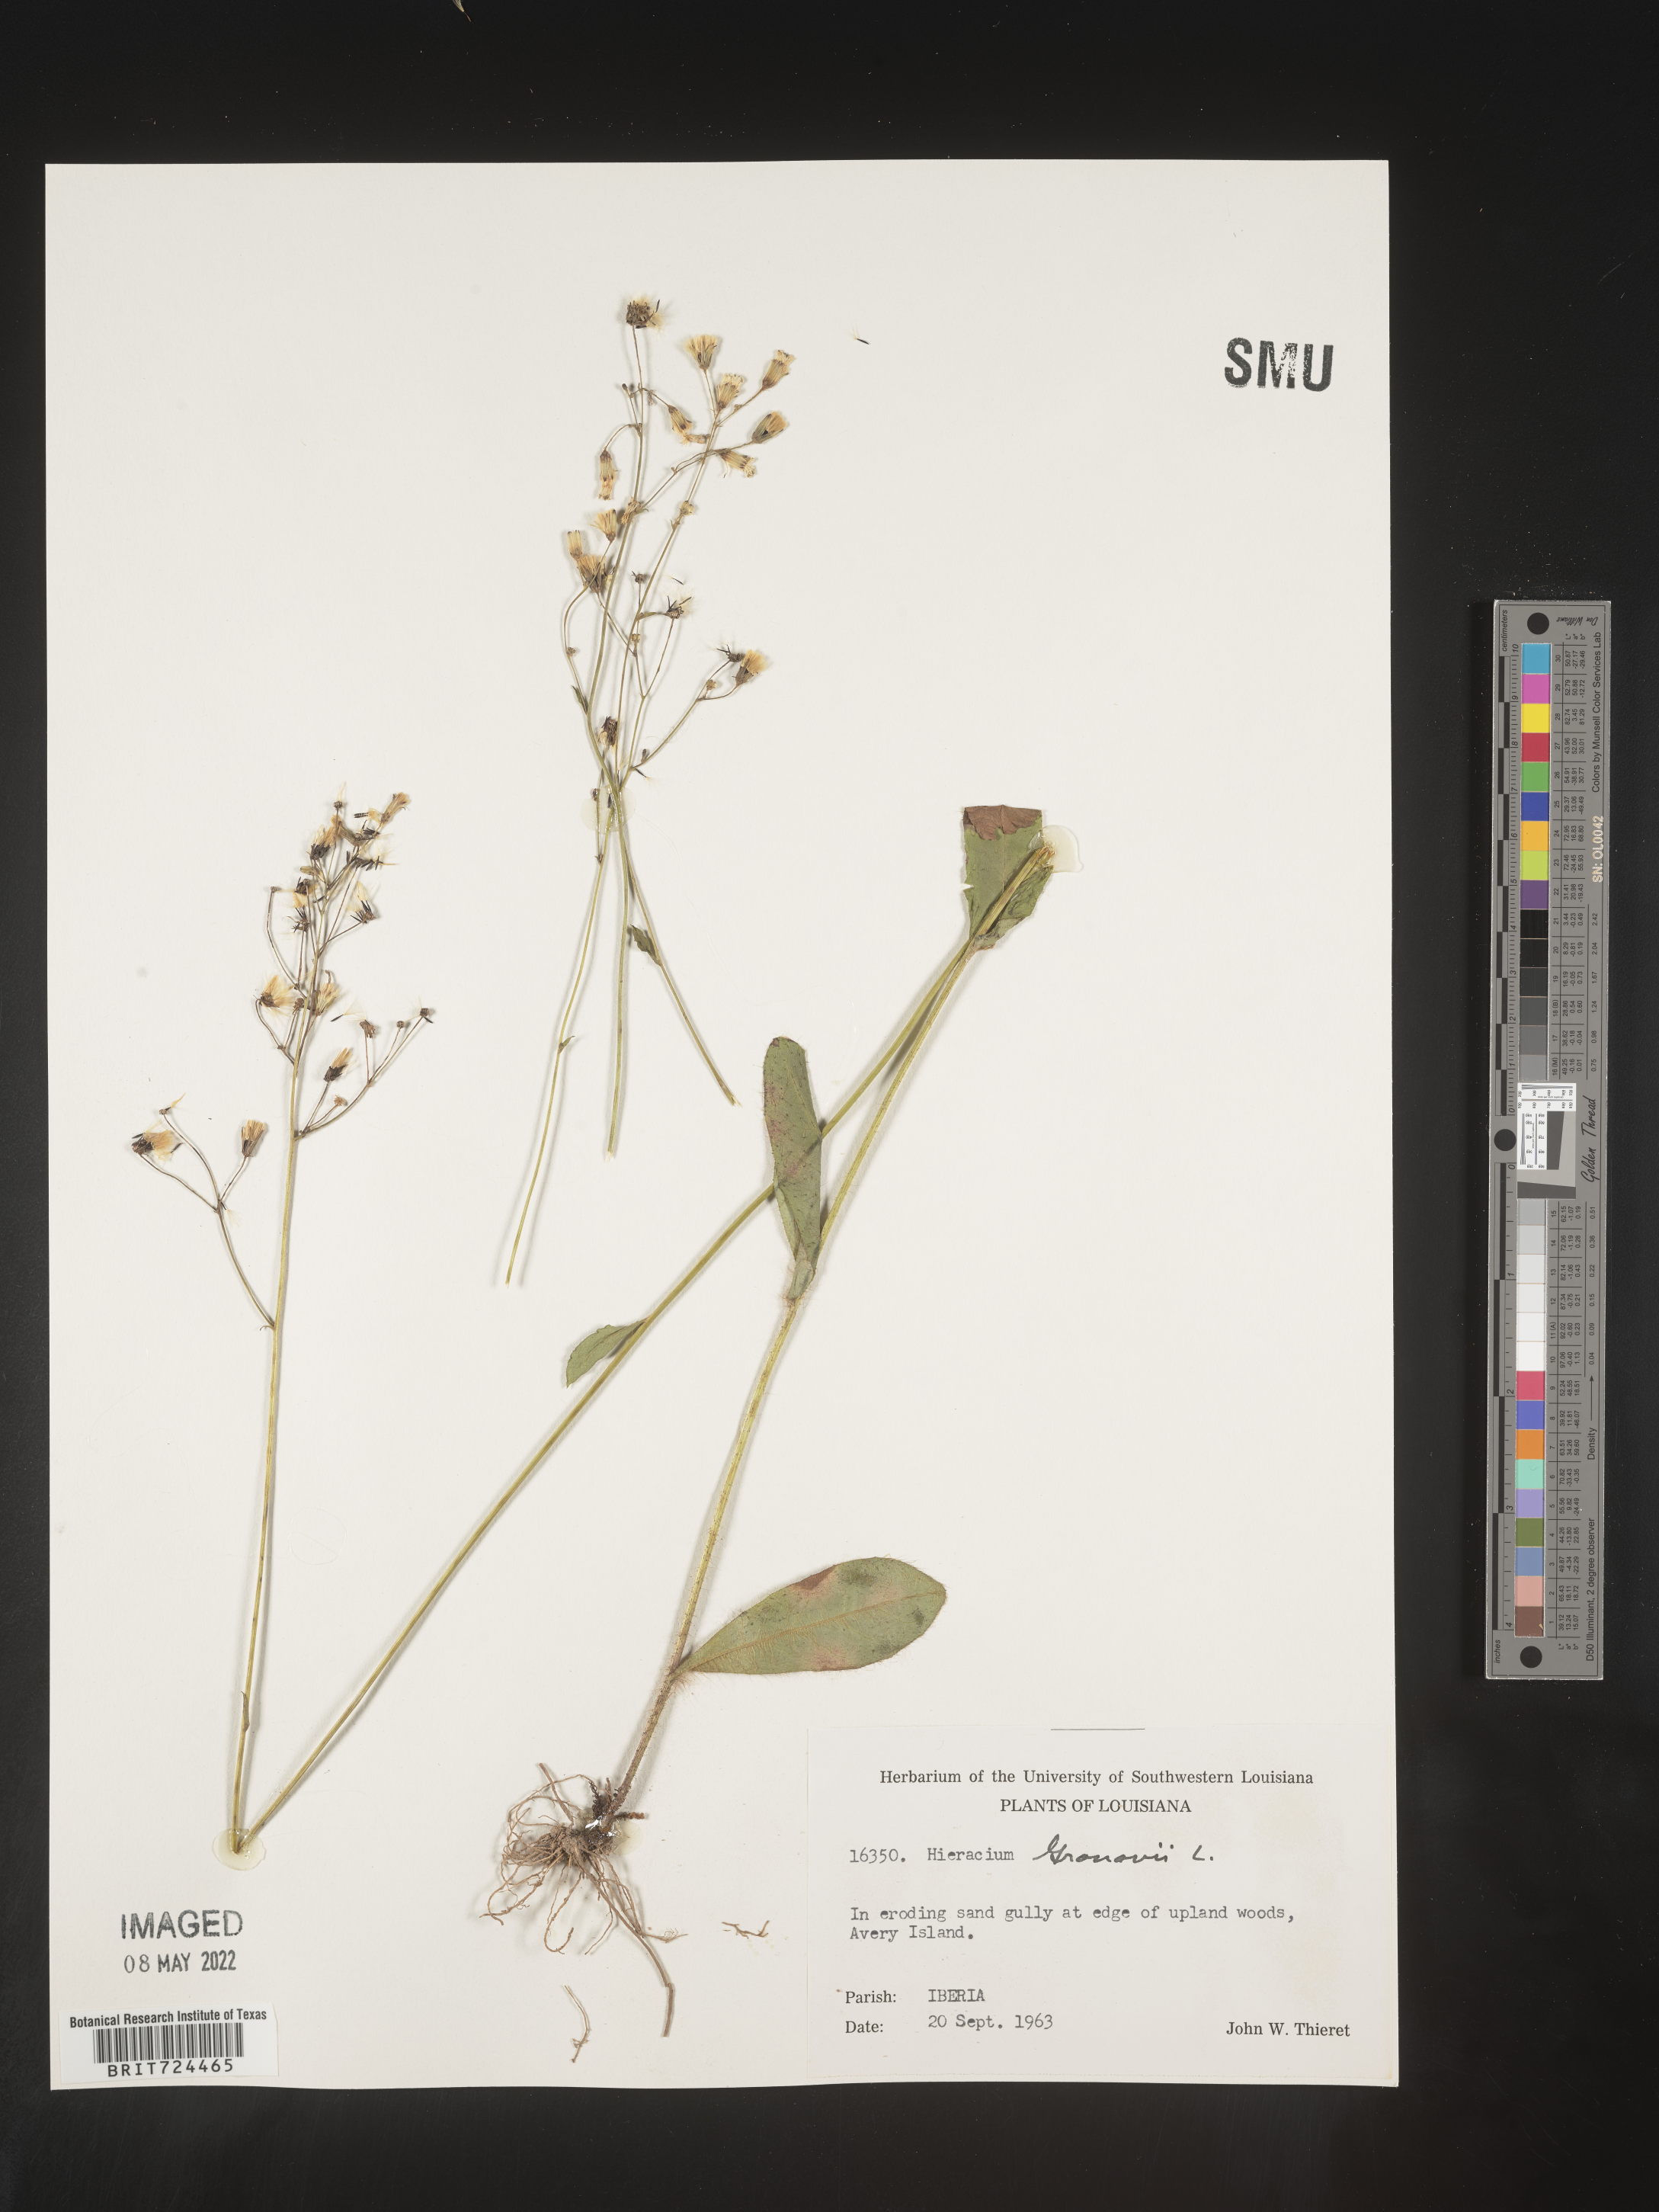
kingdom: Plantae
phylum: Tracheophyta
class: Magnoliopsida
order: Asterales
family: Asteraceae
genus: Hieracium
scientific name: Hieracium gronovii
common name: Beaked hawkweed
